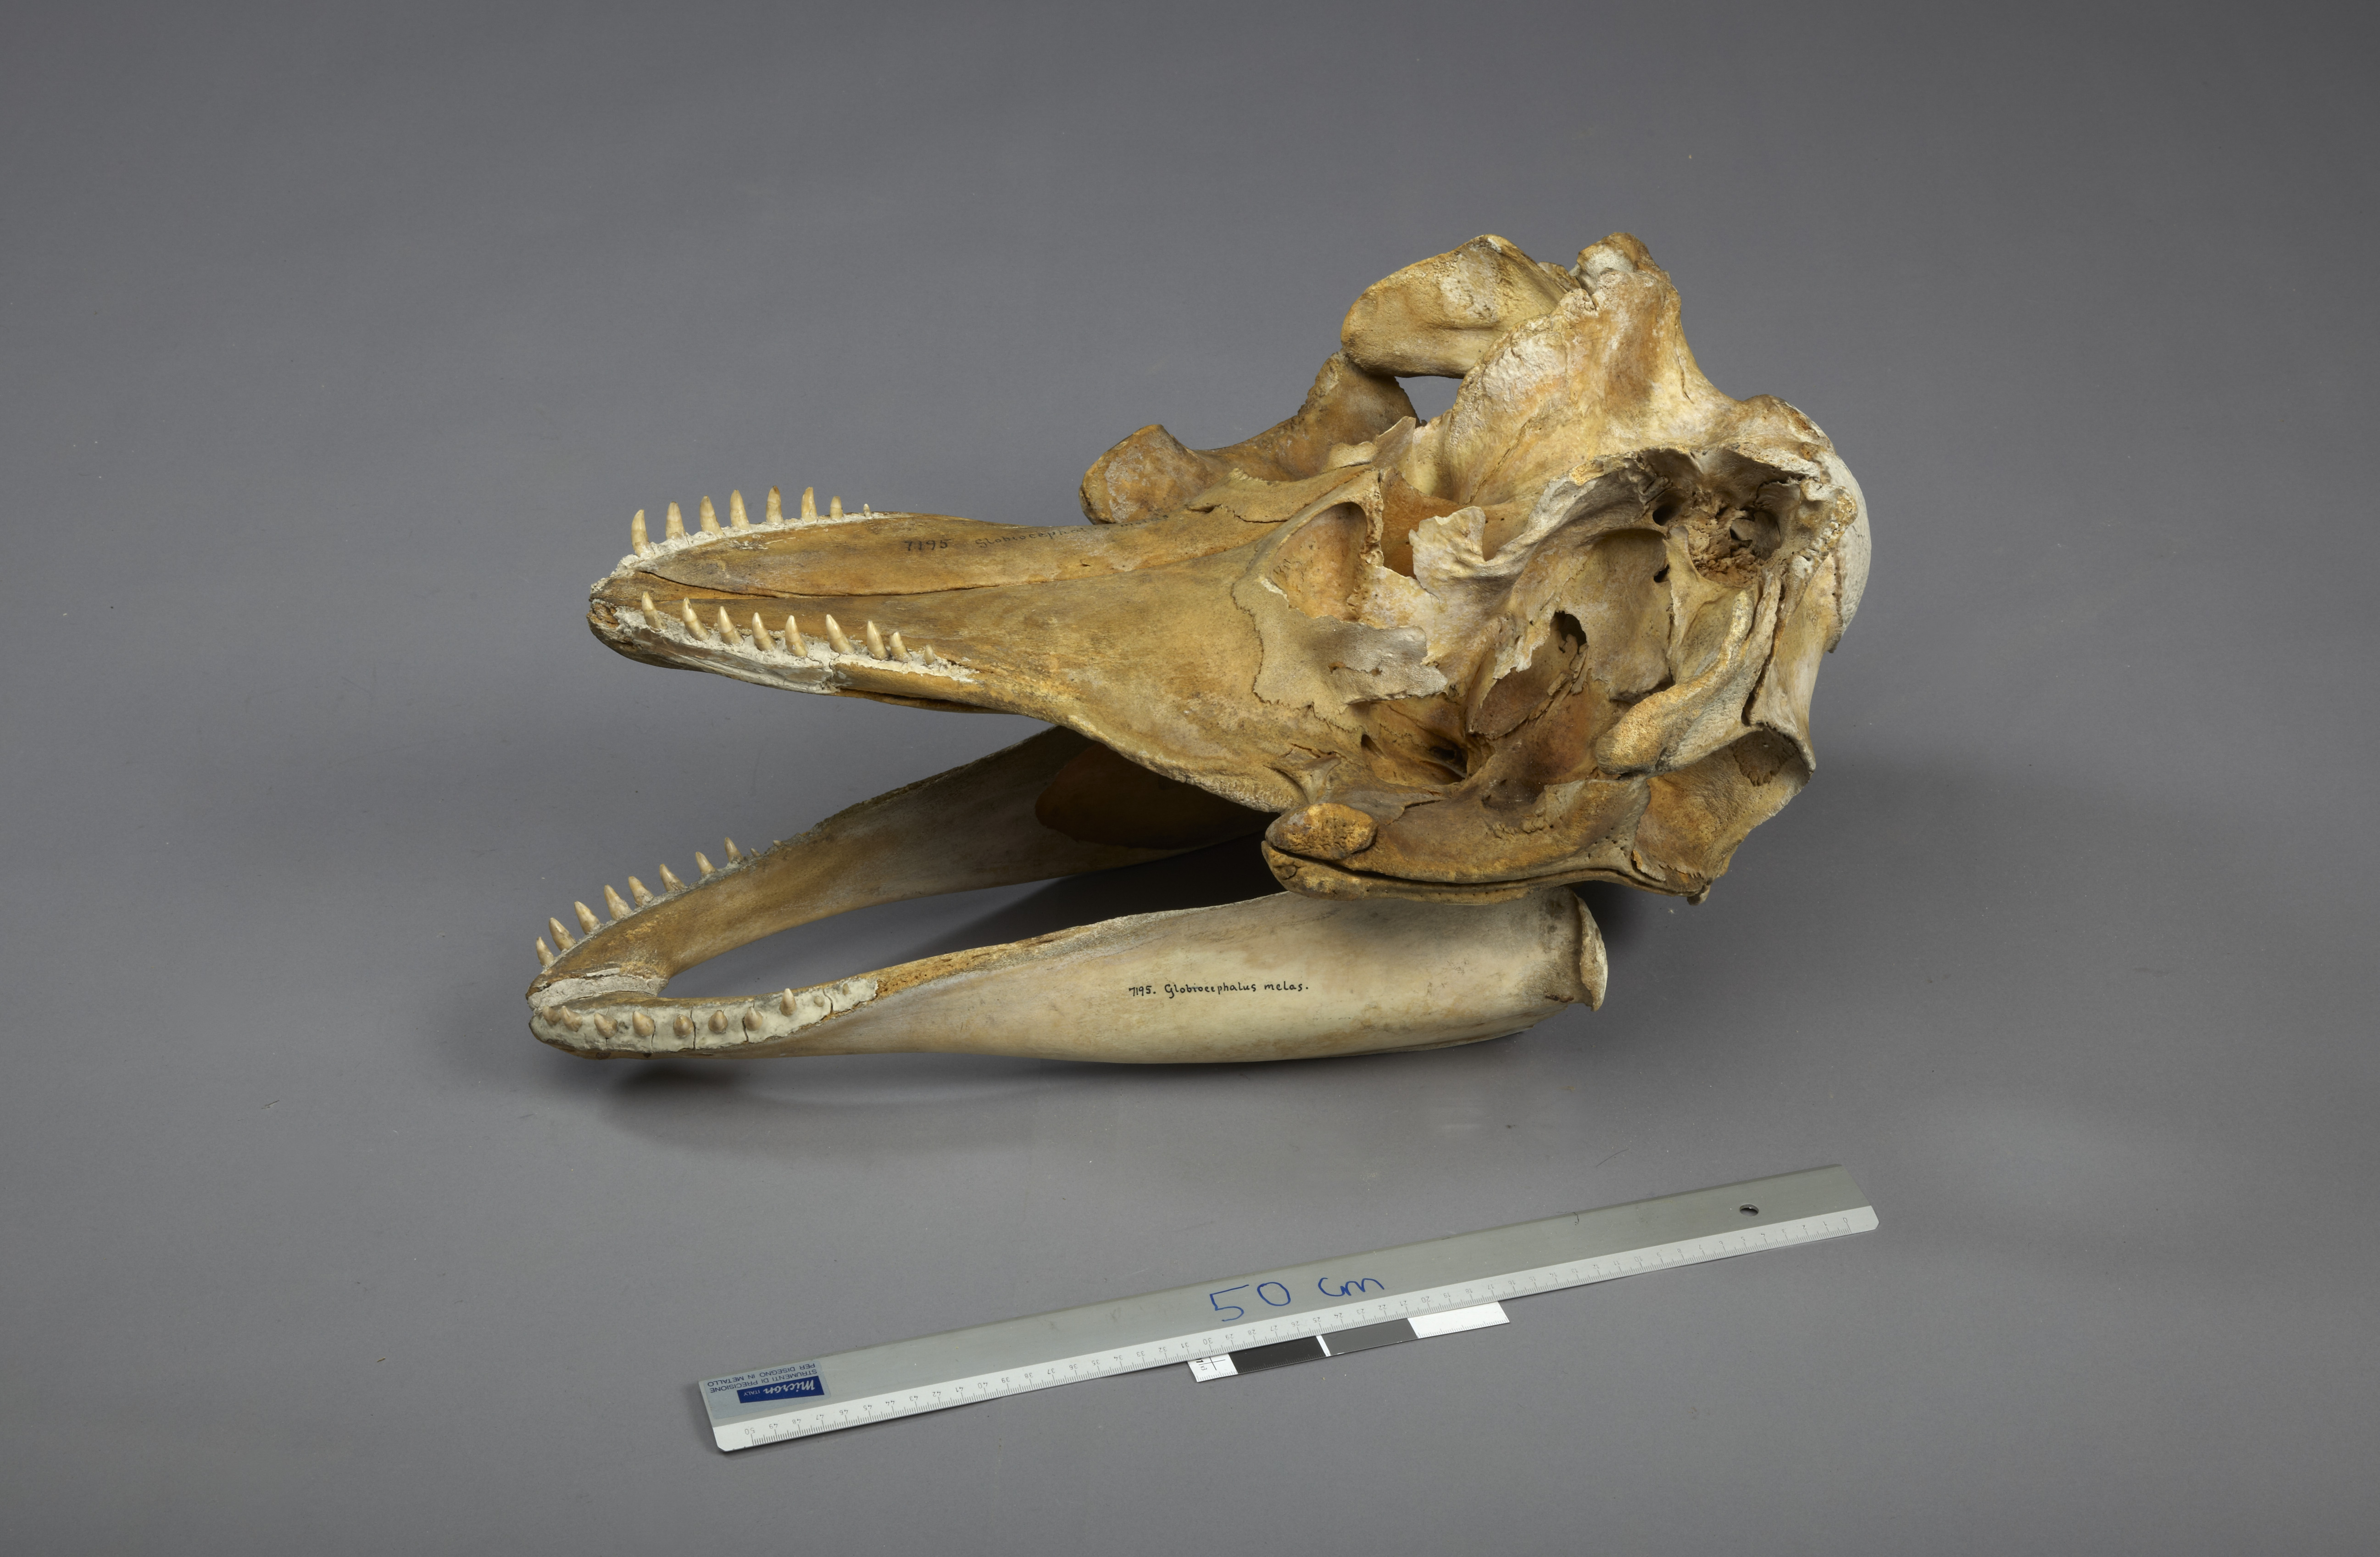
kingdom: Animalia
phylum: Chordata
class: Mammalia
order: Cetacea
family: Delphinidae
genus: Globicephala
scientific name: Globicephala melas
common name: Long-finned pilot whale
